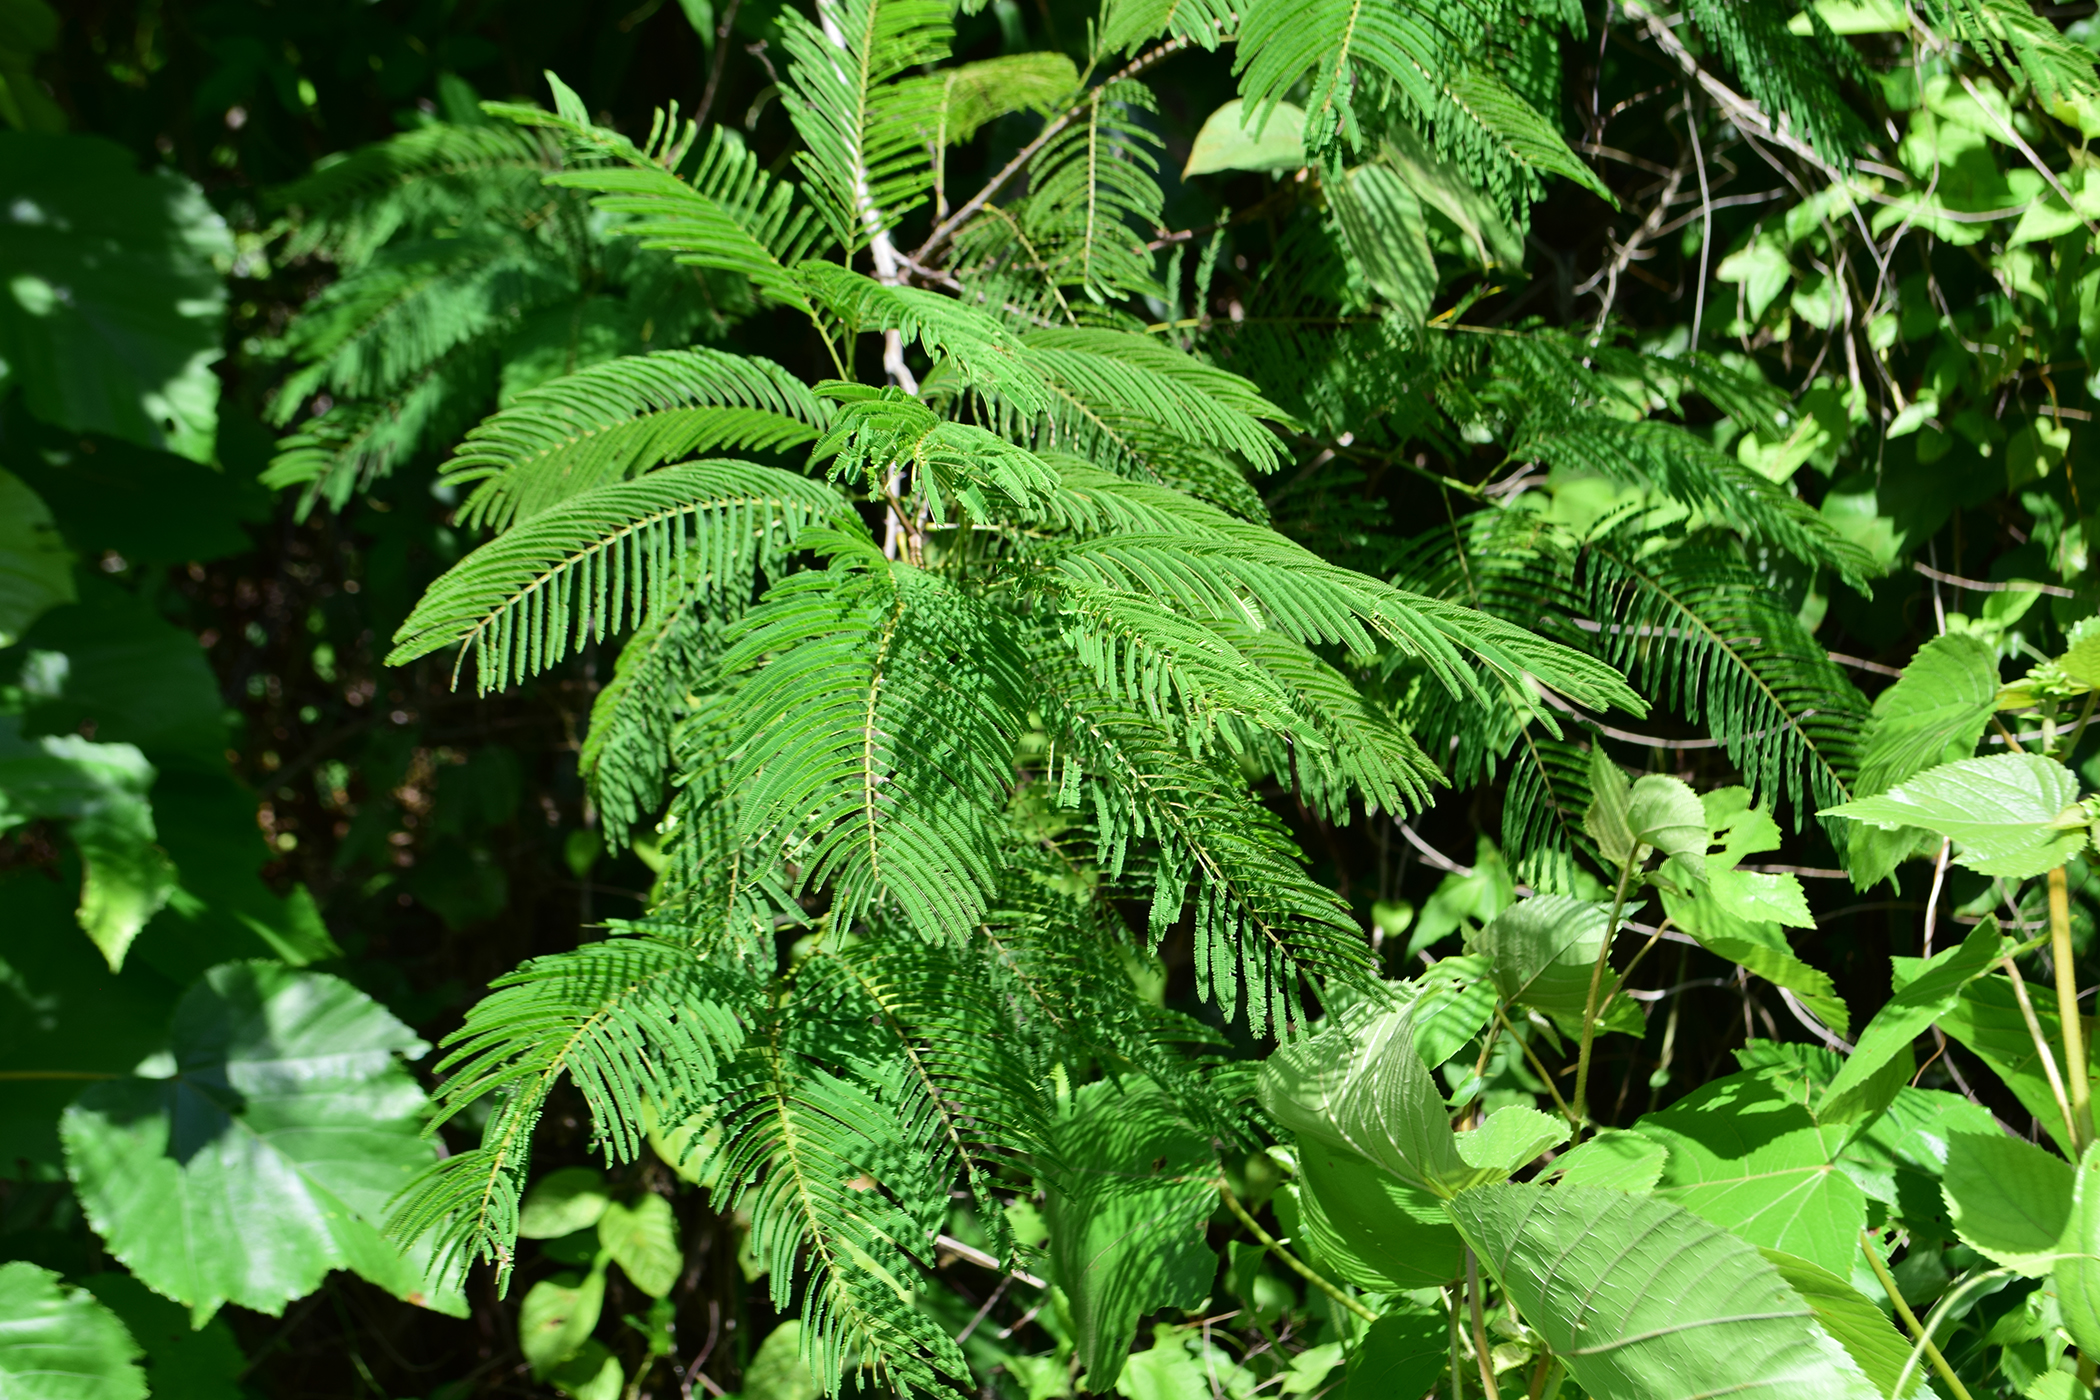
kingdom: Plantae
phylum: Tracheophyta
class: Magnoliopsida
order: Fabales
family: Fabaceae
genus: Senegalia
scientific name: Senegalia megaladena
